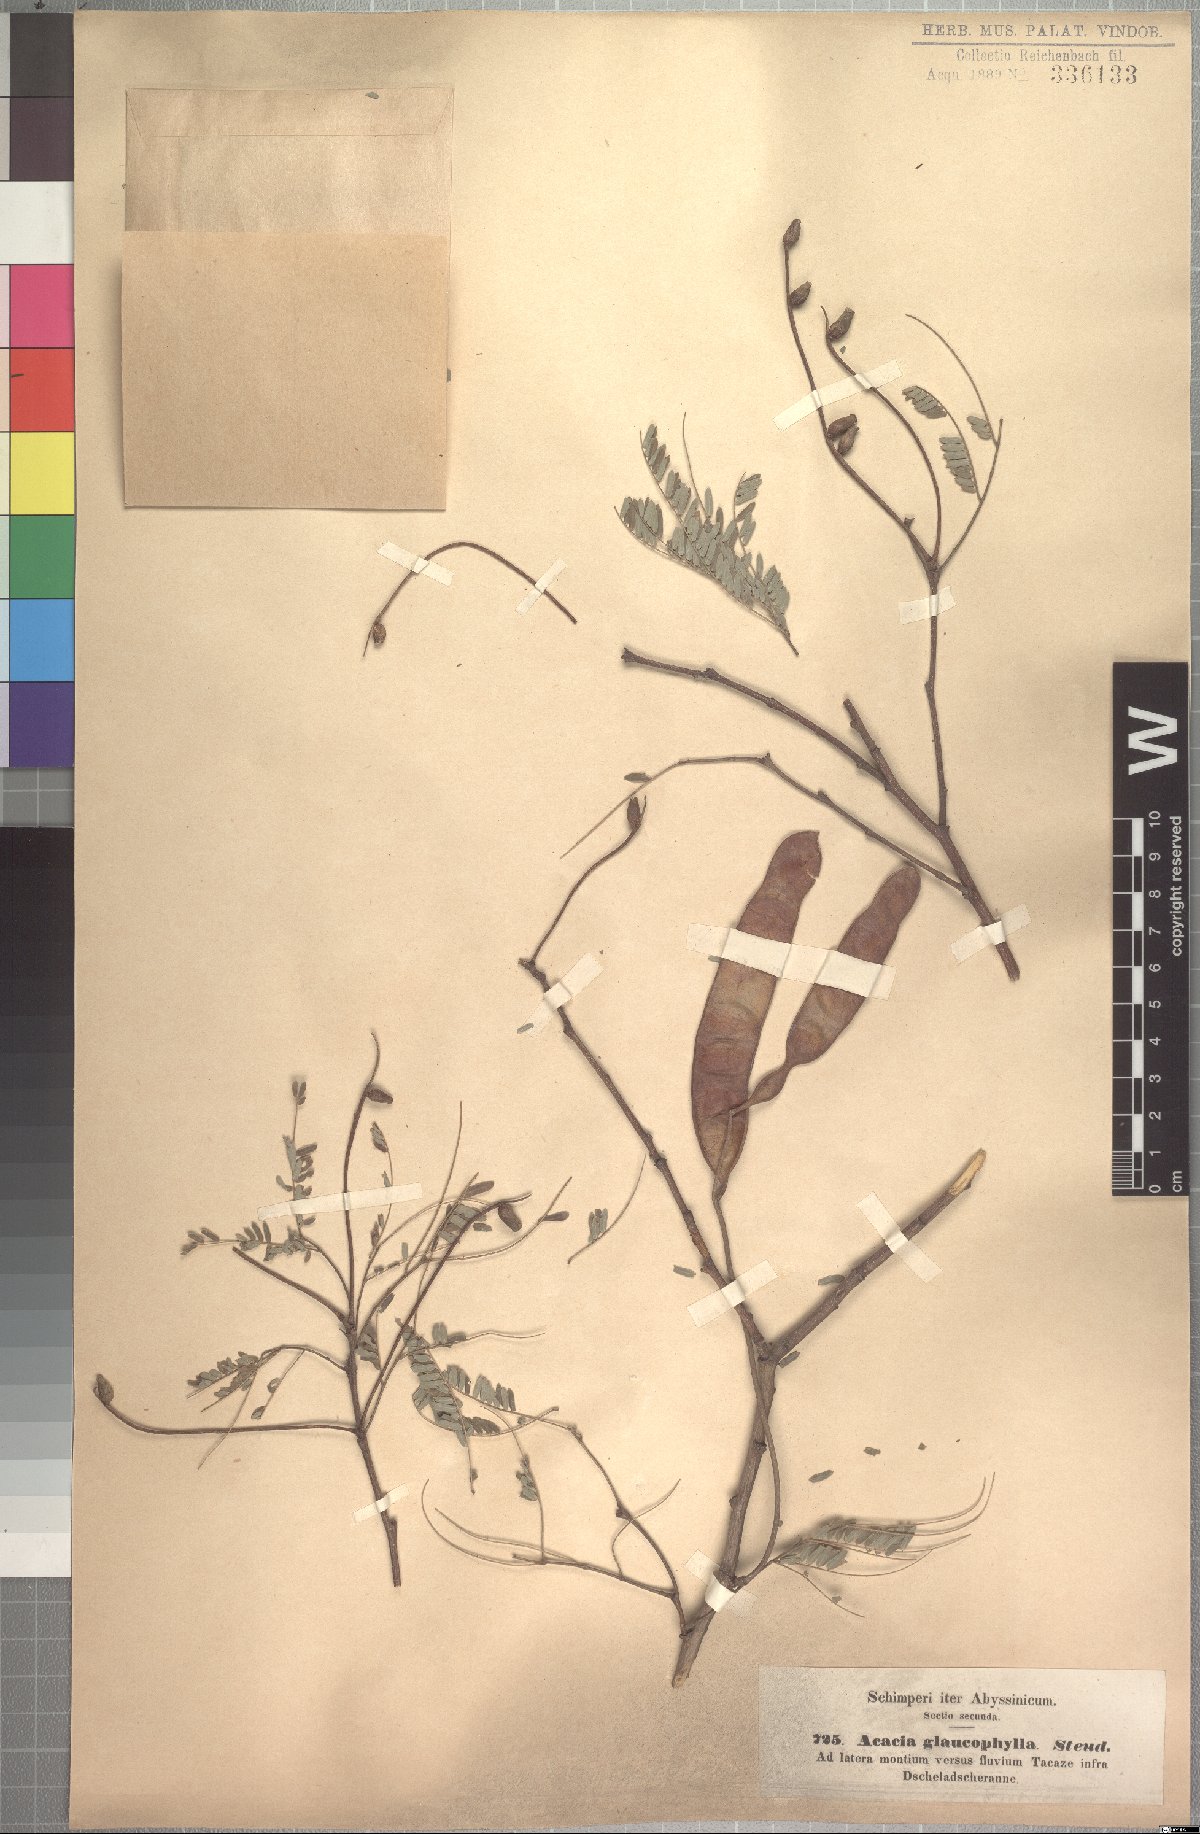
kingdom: Plantae
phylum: Tracheophyta
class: Magnoliopsida
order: Fabales
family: Fabaceae
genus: Senegalia
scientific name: Senegalia asak
